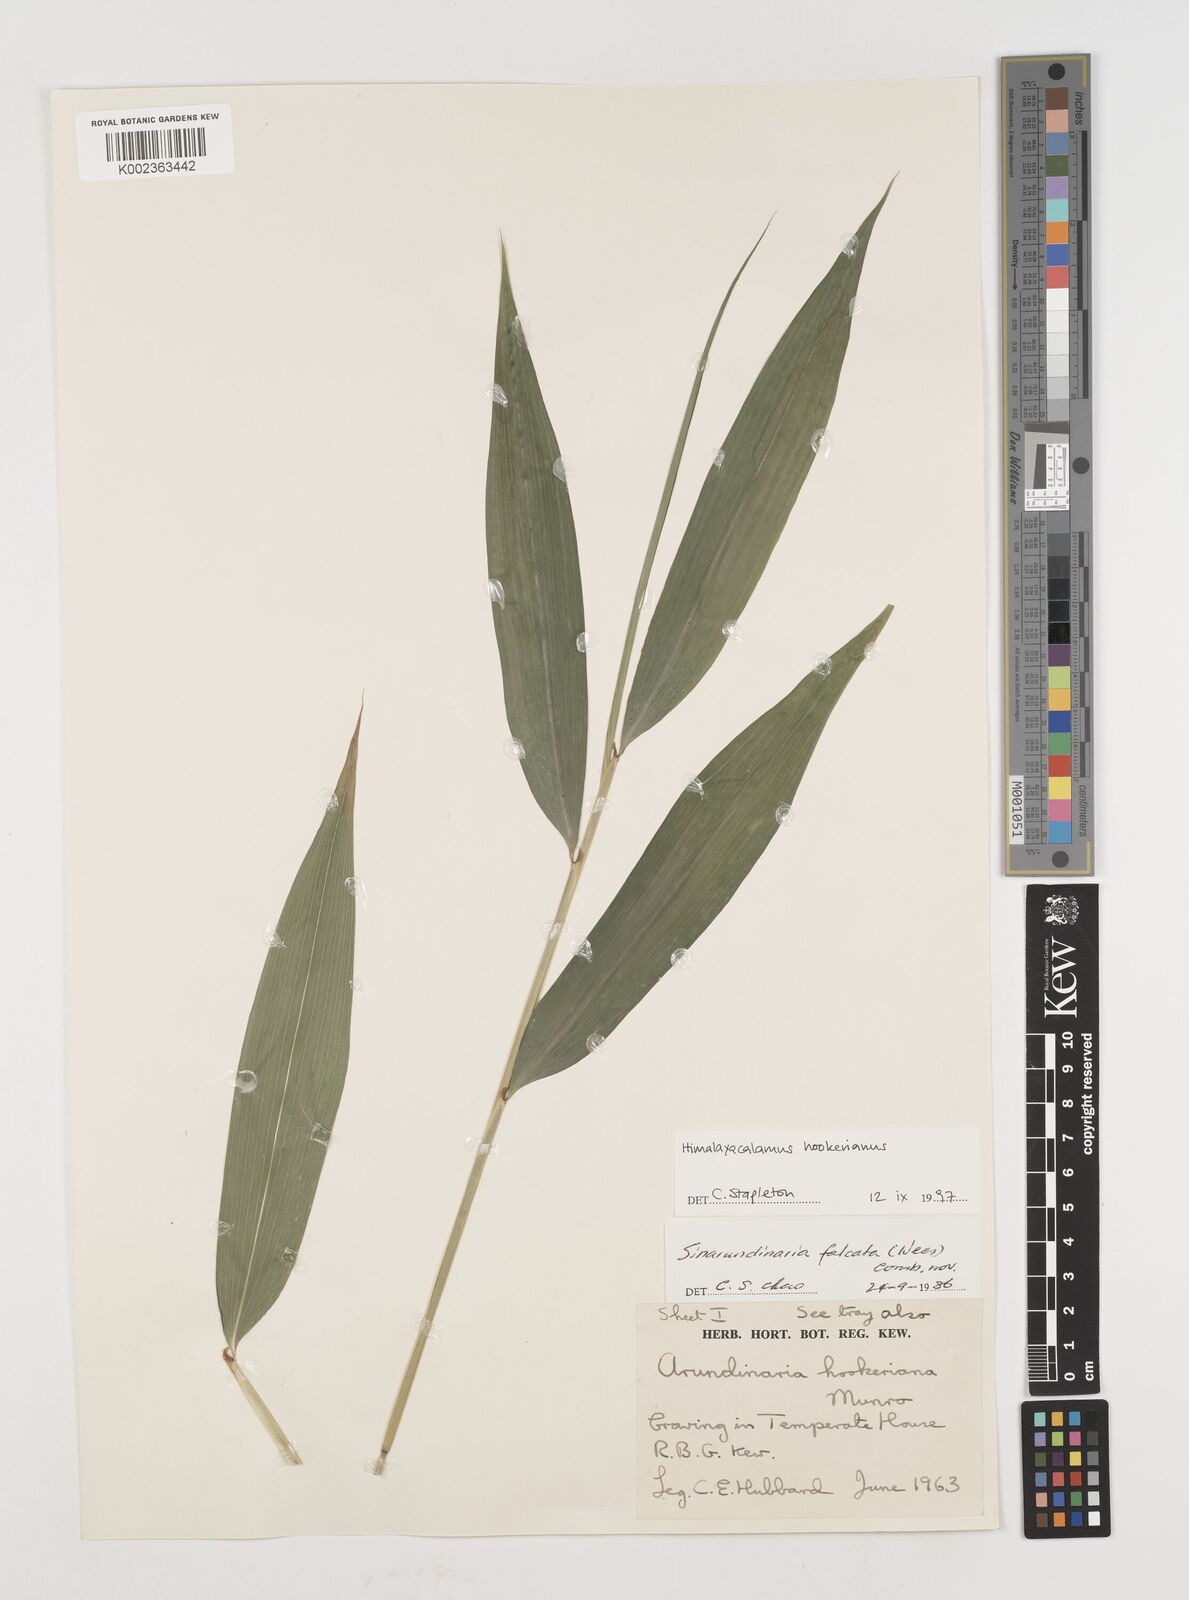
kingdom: Plantae
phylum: Tracheophyta
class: Liliopsida
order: Poales
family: Poaceae
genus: Himalayacalamus
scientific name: Himalayacalamus hookerianus
